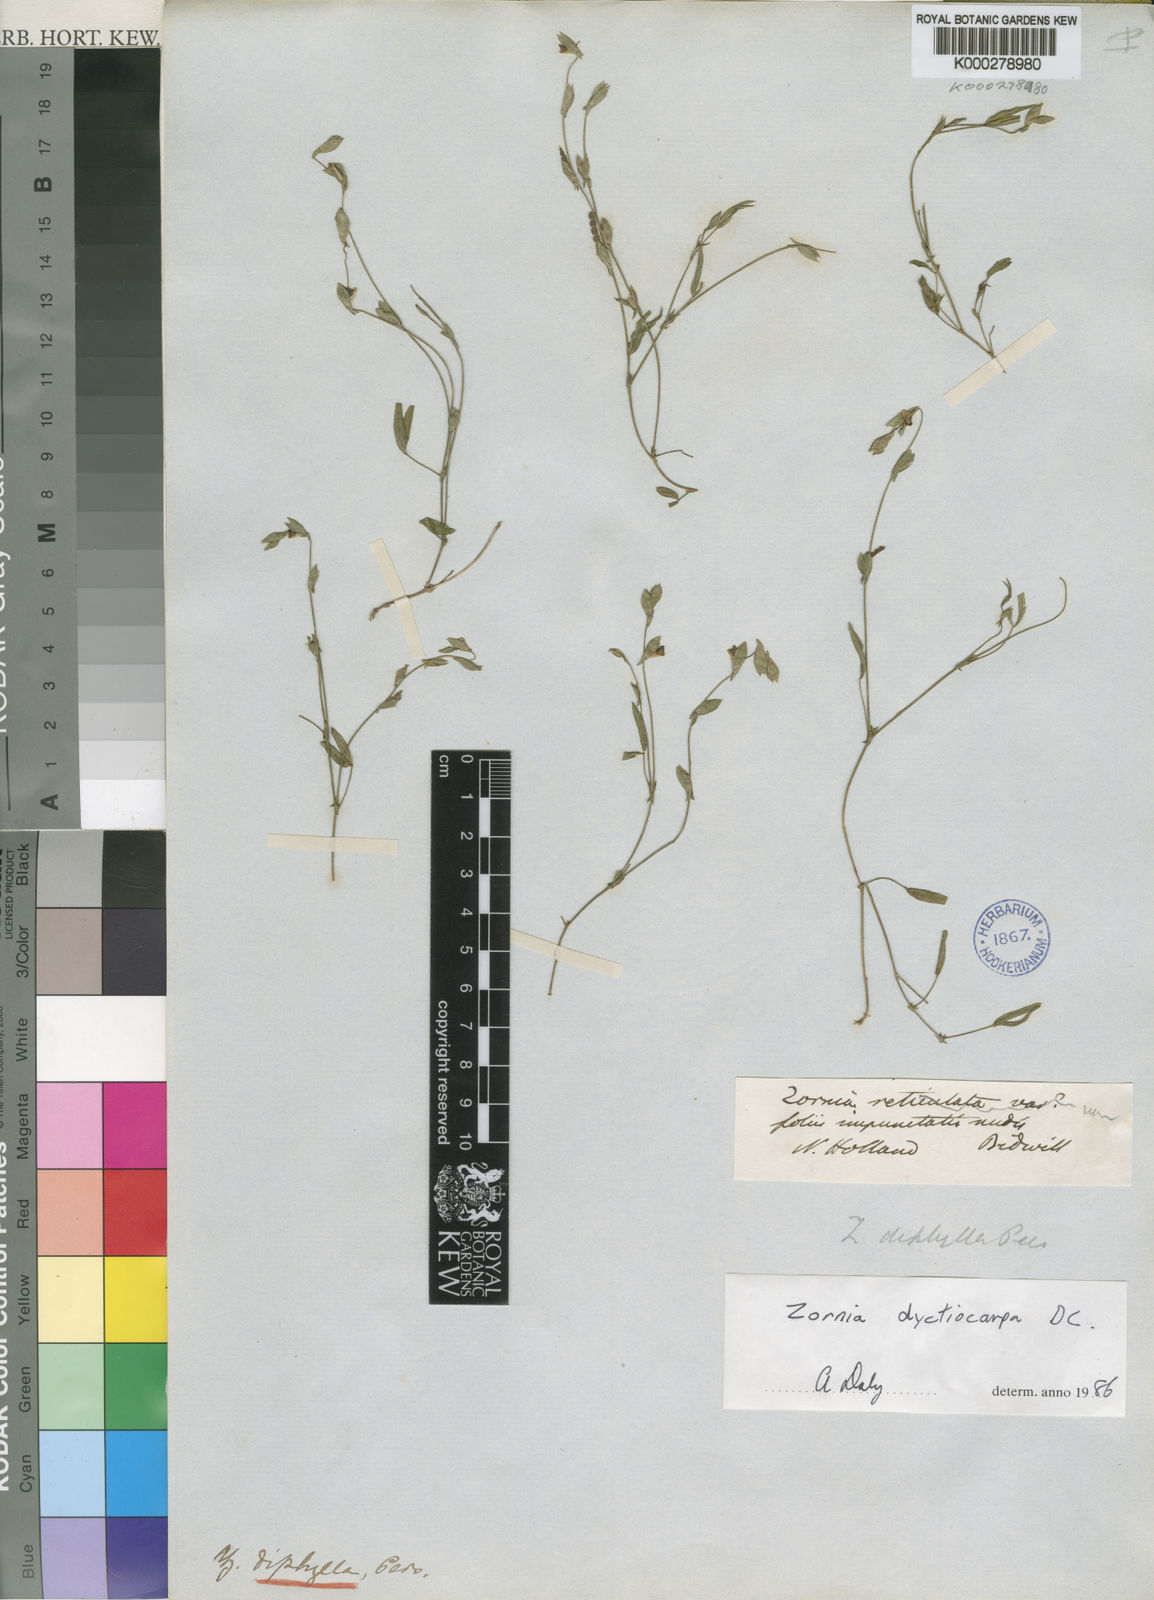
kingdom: Plantae
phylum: Tracheophyta
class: Magnoliopsida
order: Fabales
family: Fabaceae
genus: Zornia
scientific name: Zornia diphylla
